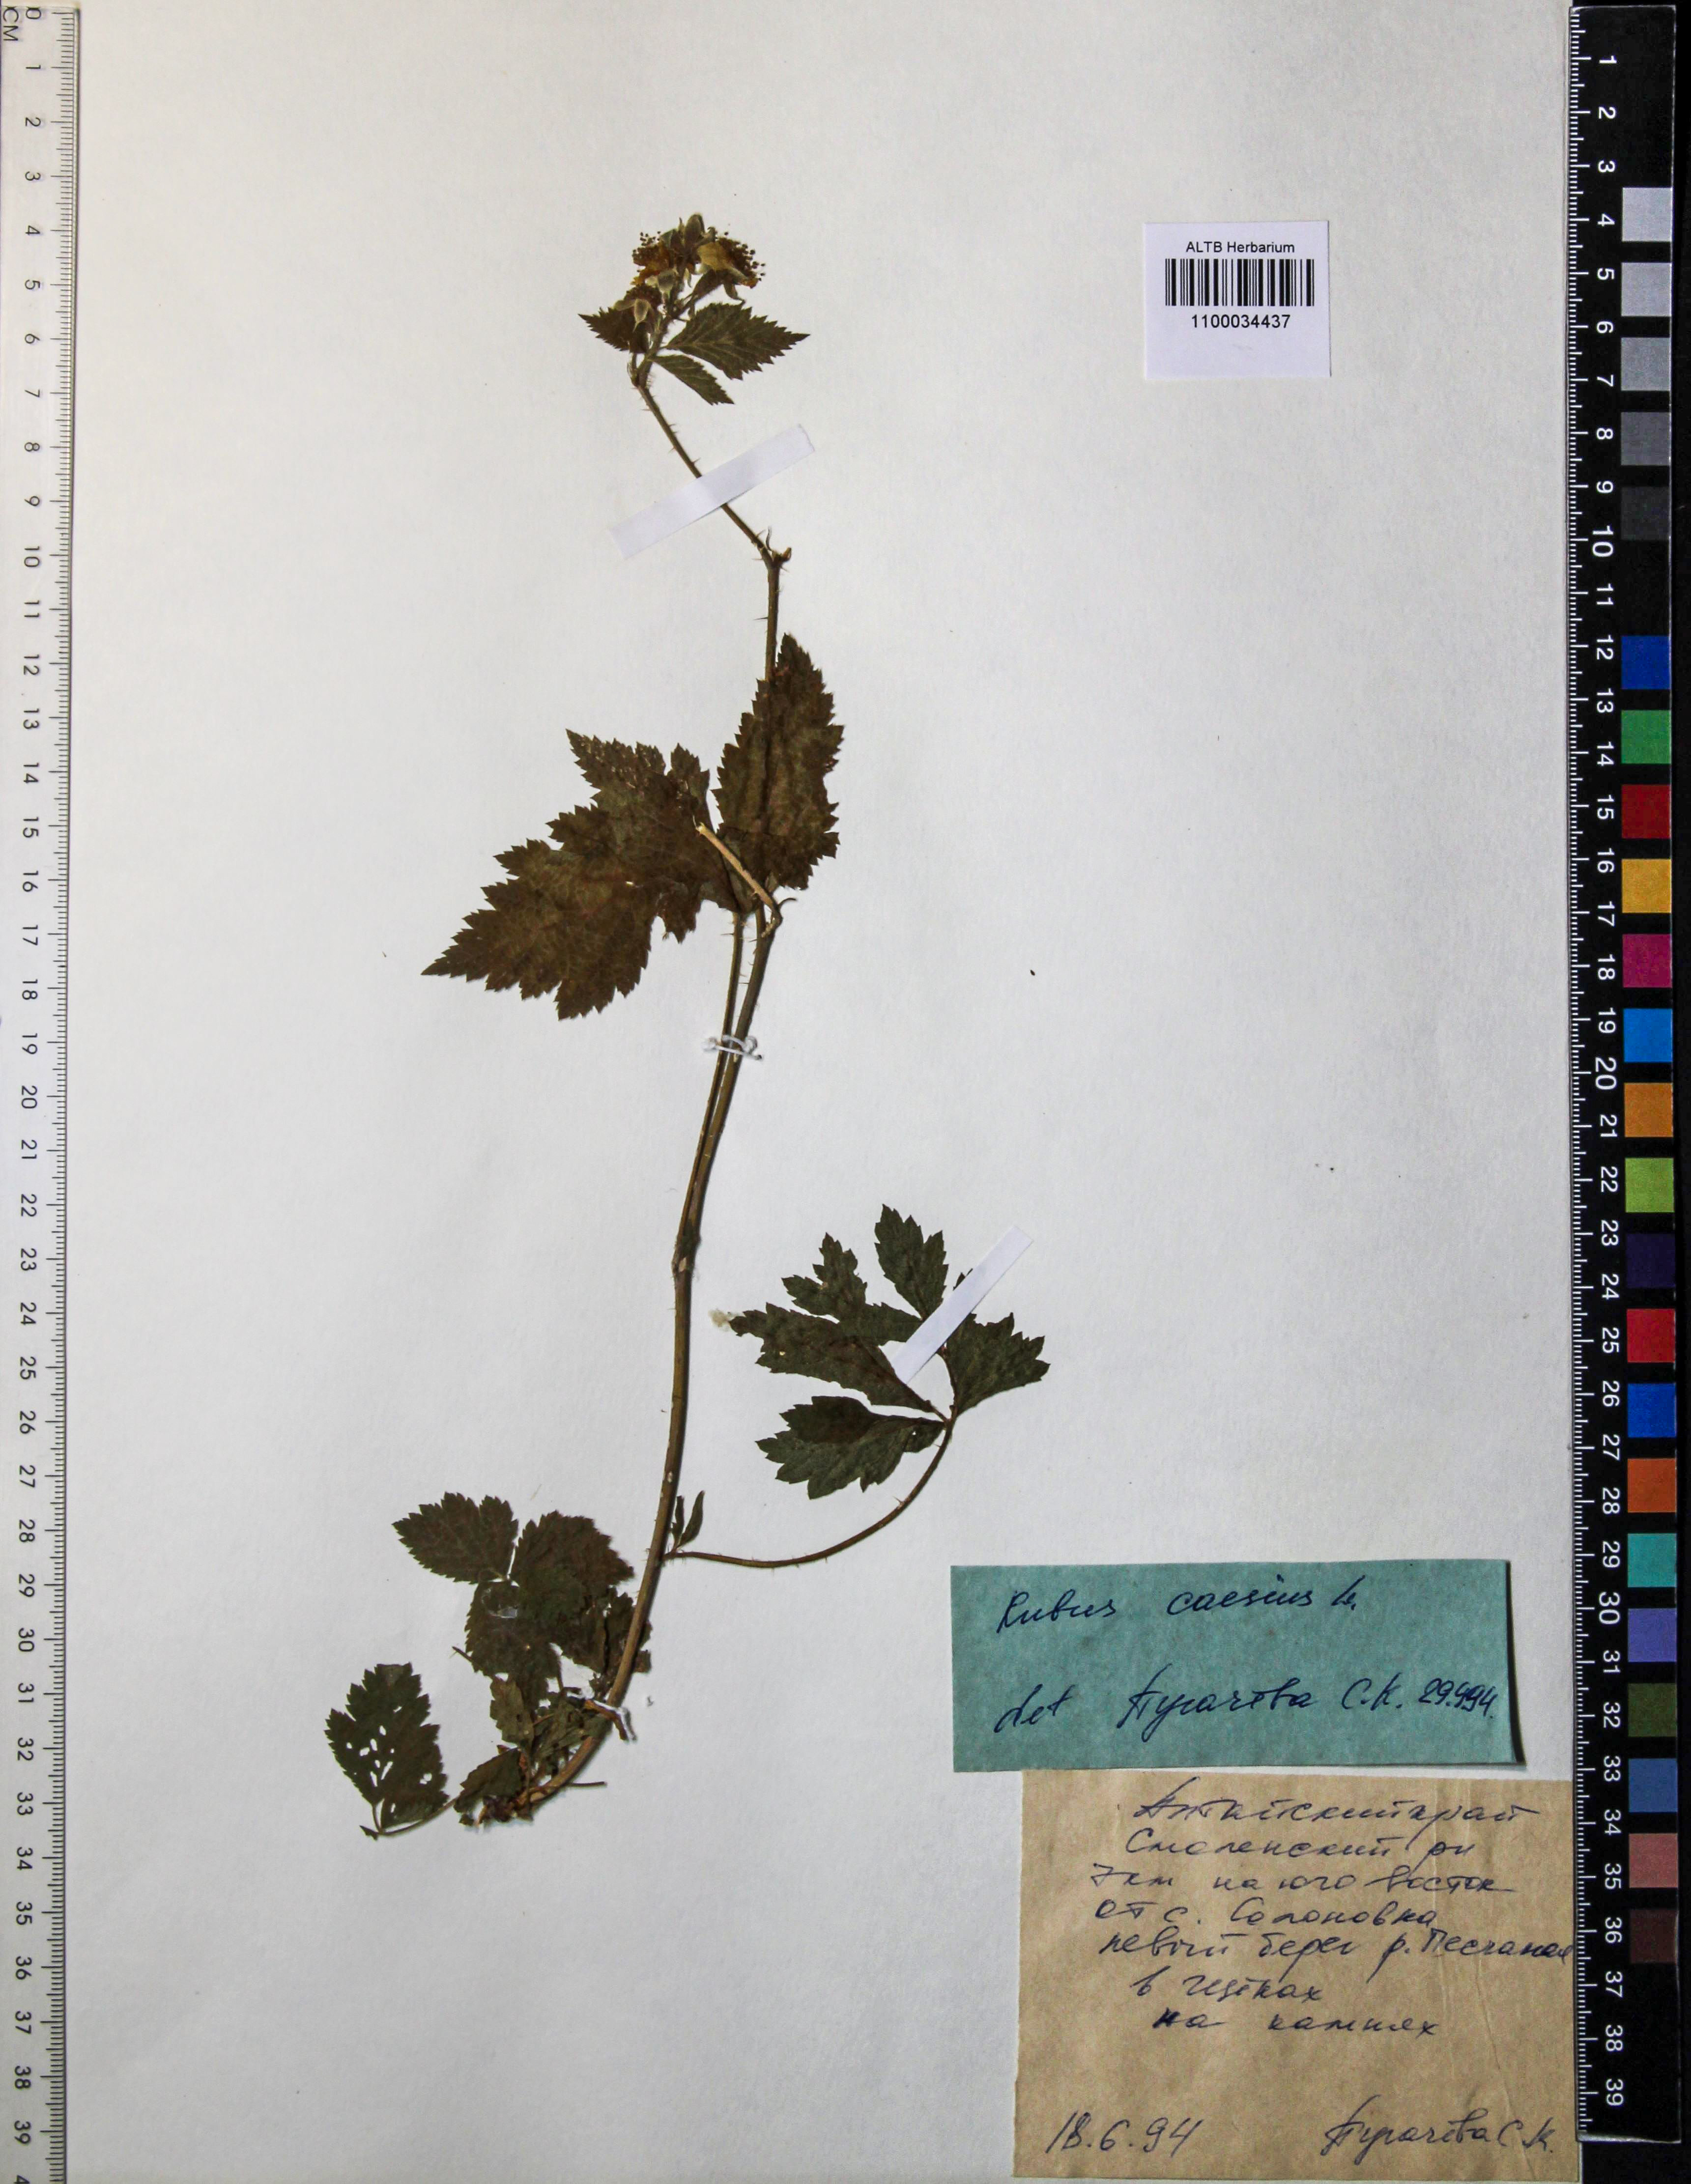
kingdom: Plantae
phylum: Tracheophyta
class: Magnoliopsida
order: Rosales
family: Rosaceae
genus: Rubus
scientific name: Rubus caesius
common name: Dewberry
